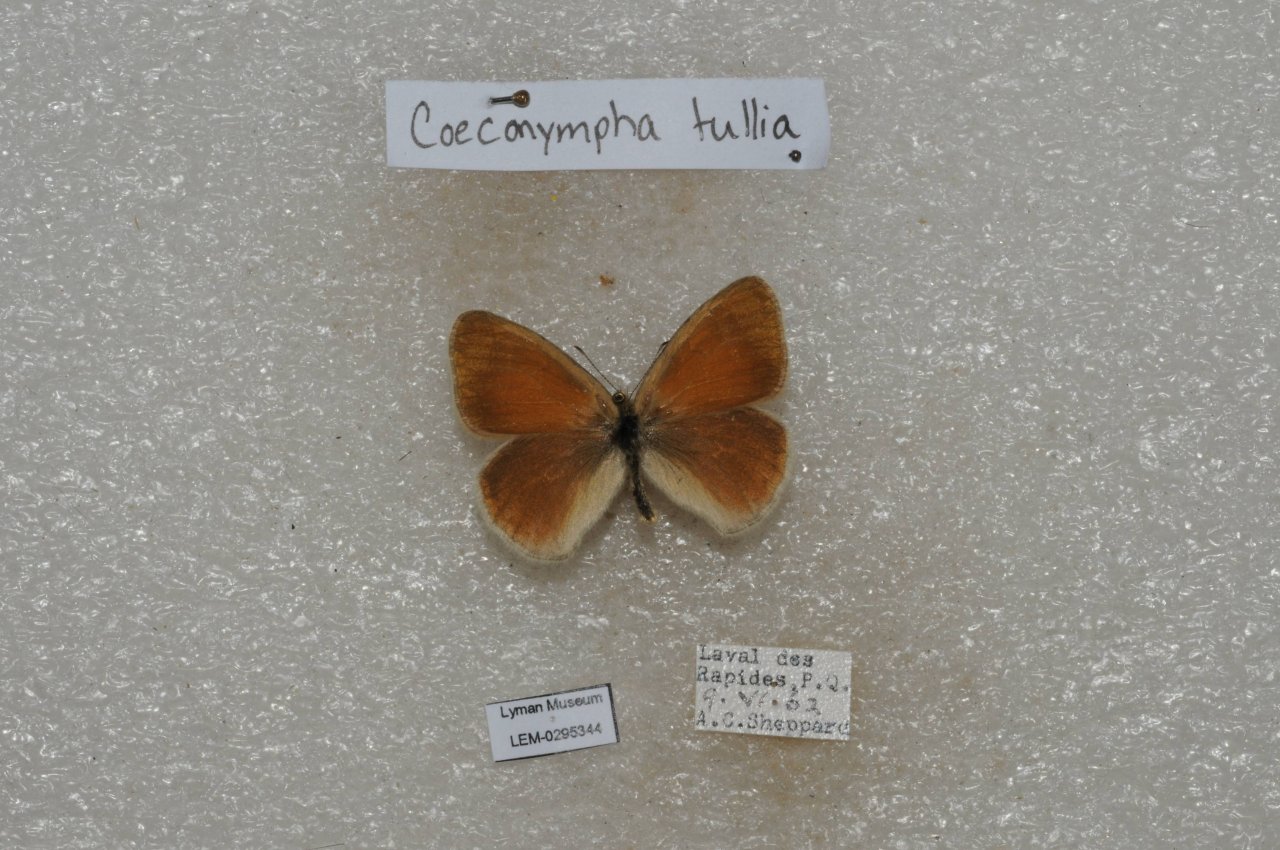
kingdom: Animalia
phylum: Arthropoda
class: Insecta
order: Lepidoptera
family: Nymphalidae
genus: Coenonympha
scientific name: Coenonympha tullia
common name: Large Heath
